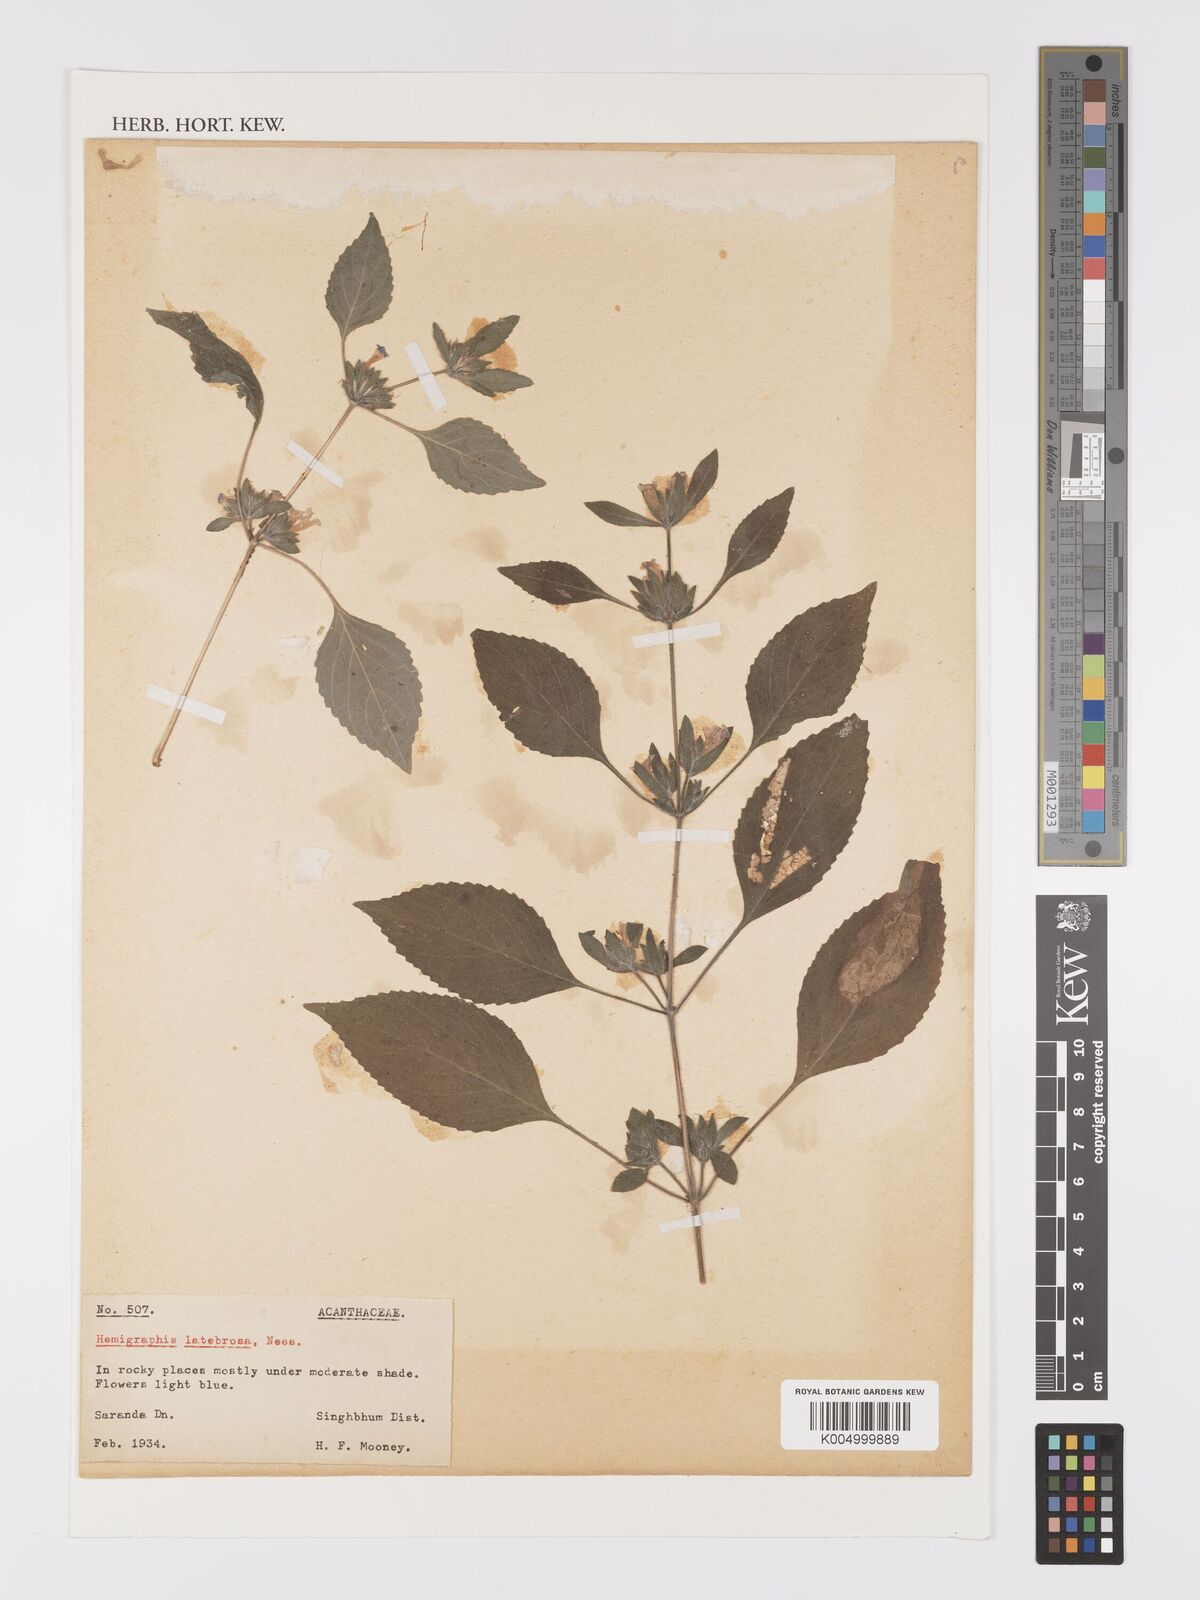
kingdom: Plantae
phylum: Tracheophyta
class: Magnoliopsida
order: Lamiales
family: Acanthaceae
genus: Strobilanthes
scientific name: Strobilanthes latebrosa
